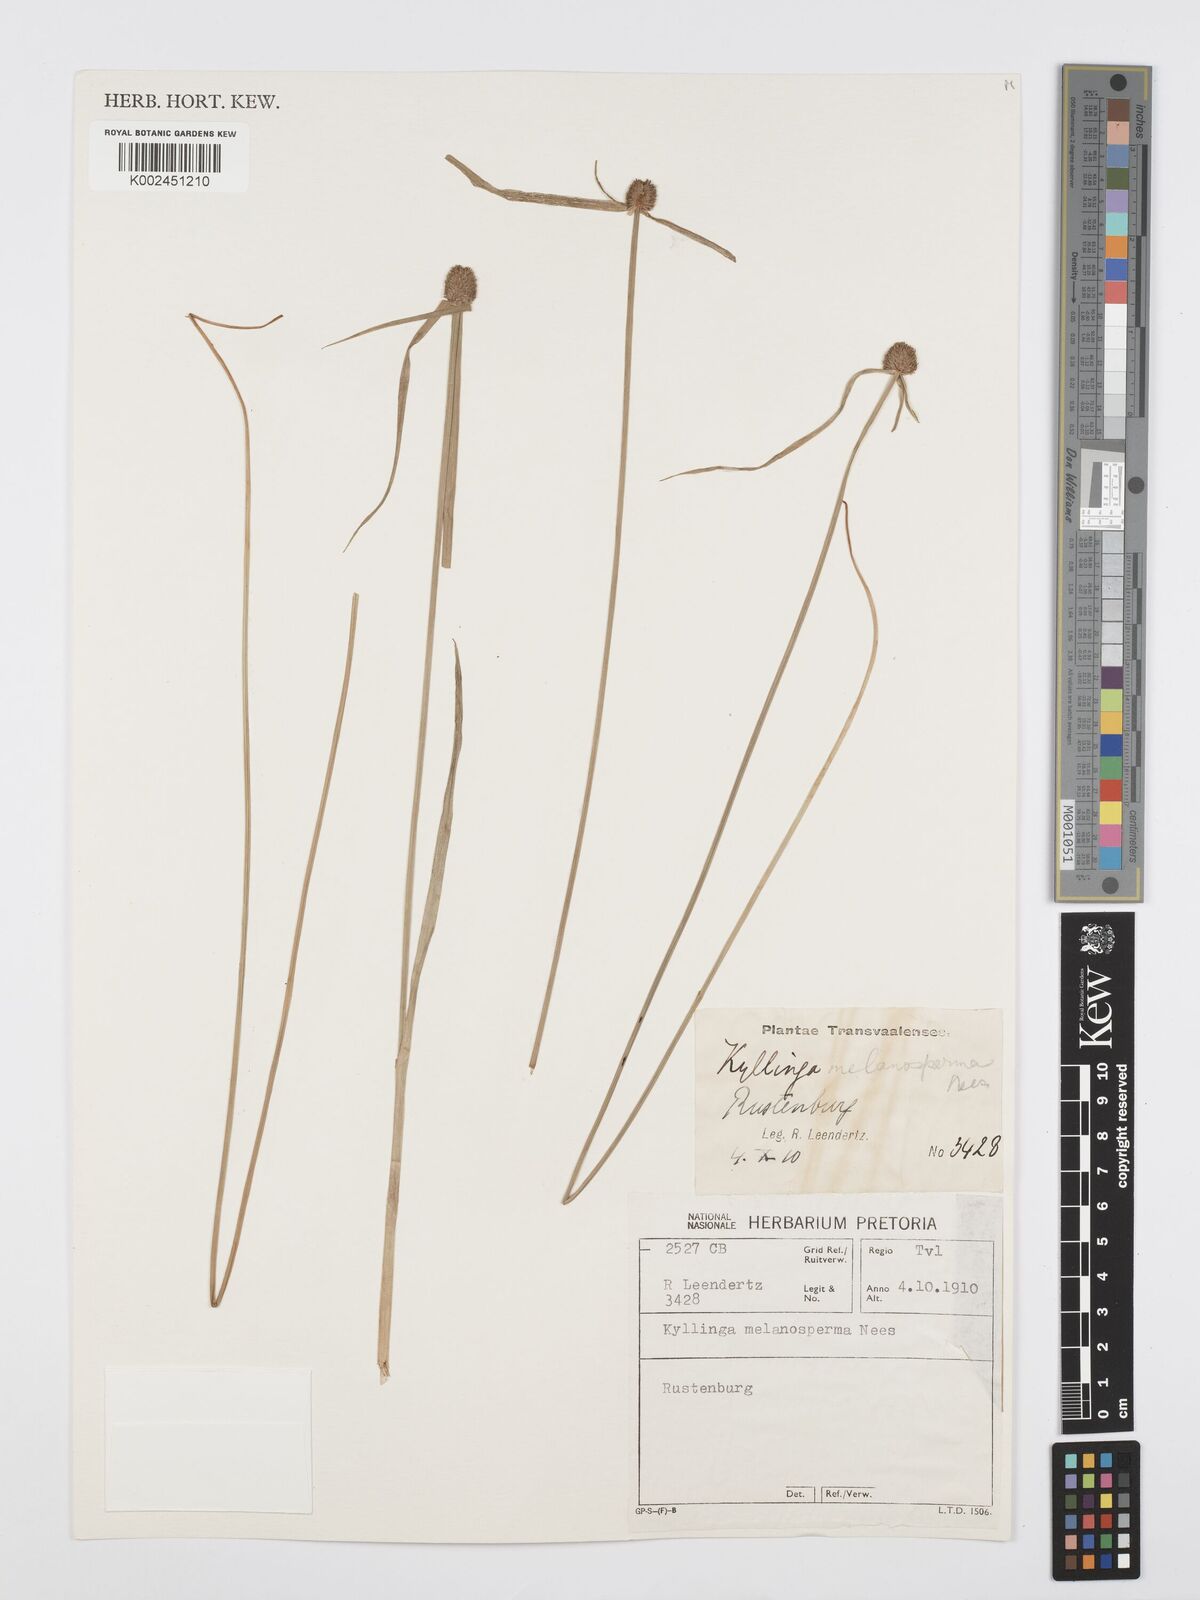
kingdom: Plantae
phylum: Tracheophyta
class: Liliopsida
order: Poales
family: Cyperaceae
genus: Cyperus
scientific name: Cyperus melanospermus
